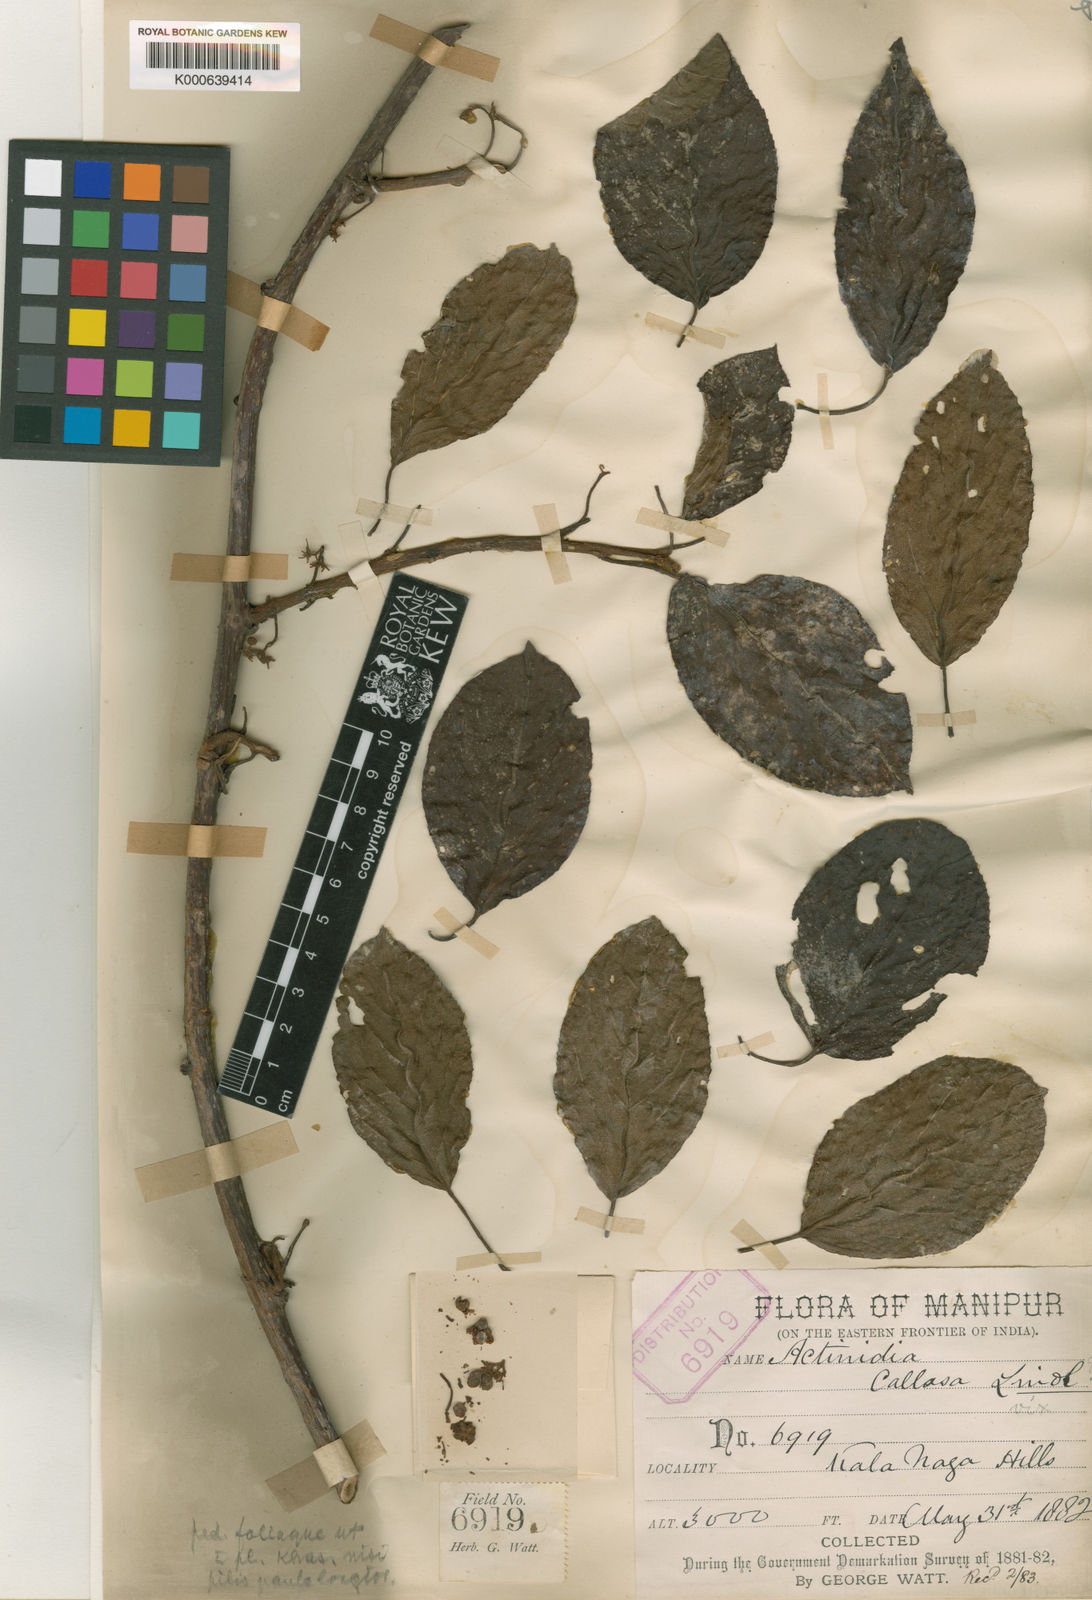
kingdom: Plantae
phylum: Tracheophyta
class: Magnoliopsida
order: Ericales
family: Actinidiaceae
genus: Actinidia
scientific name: Actinidia callosa
